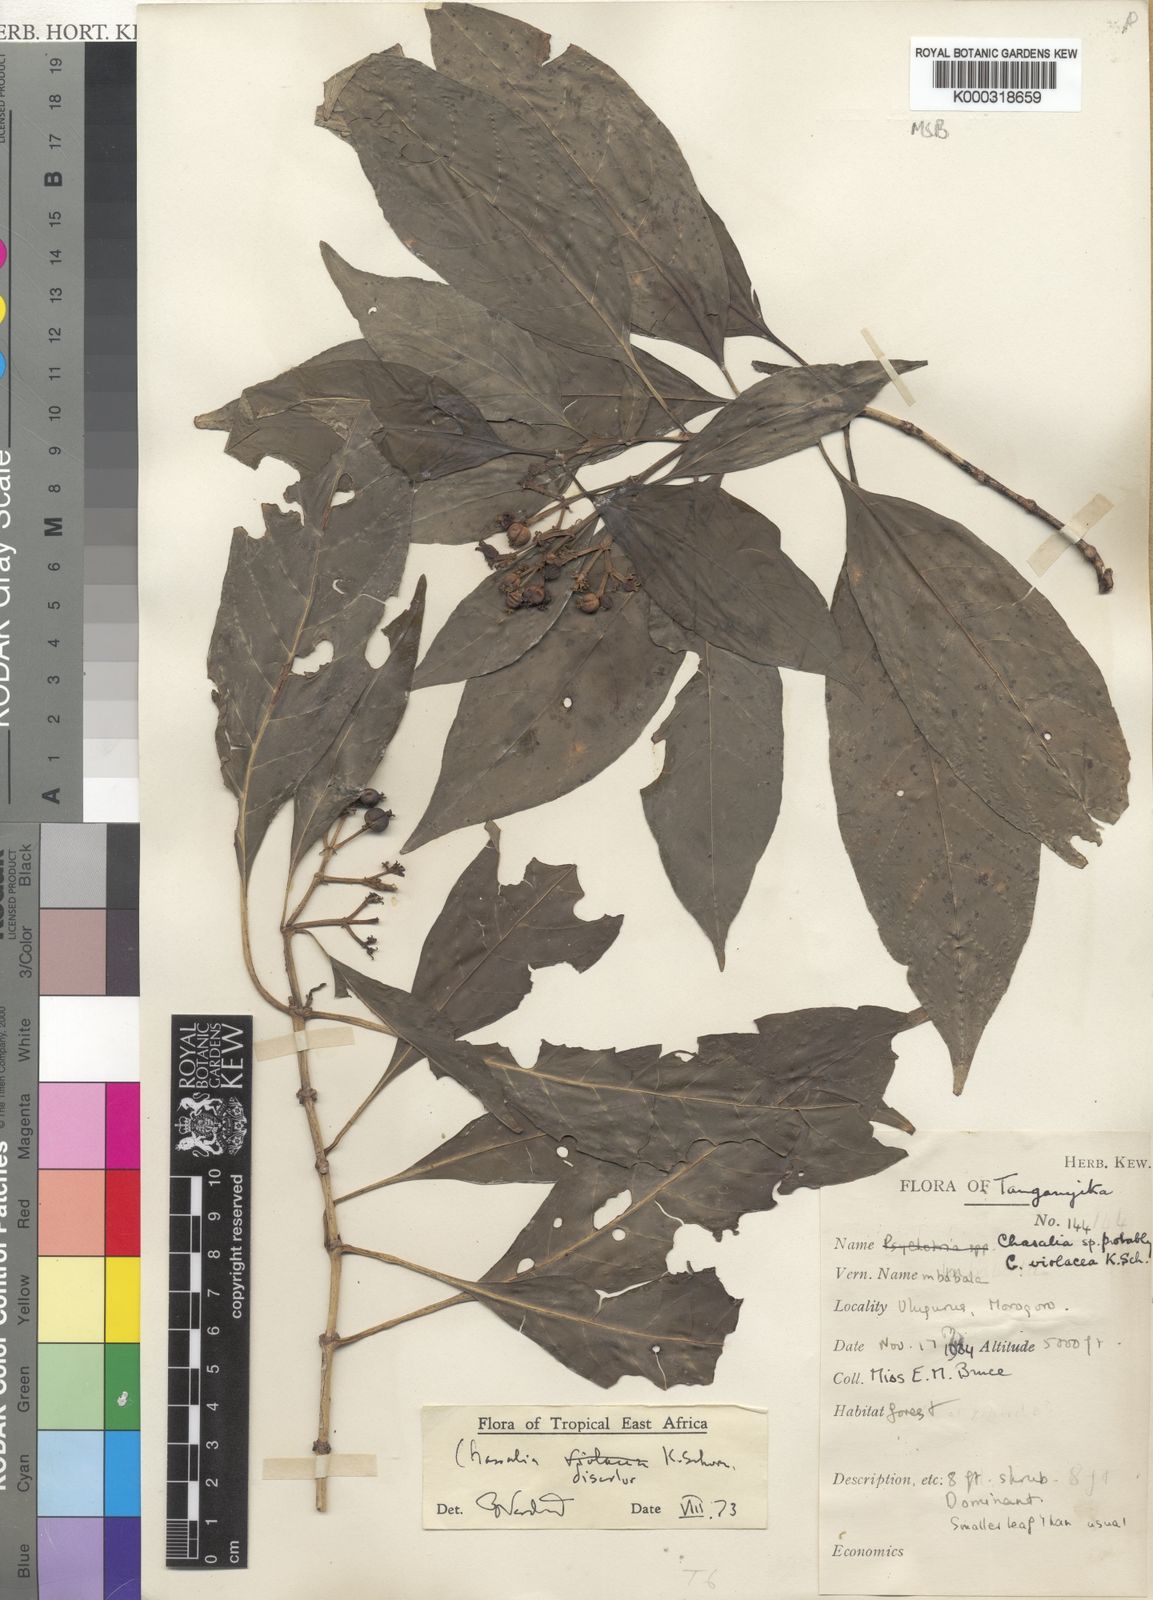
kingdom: Plantae
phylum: Tracheophyta
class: Magnoliopsida
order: Gentianales
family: Rubiaceae
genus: Chassalia
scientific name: Chassalia discolor
